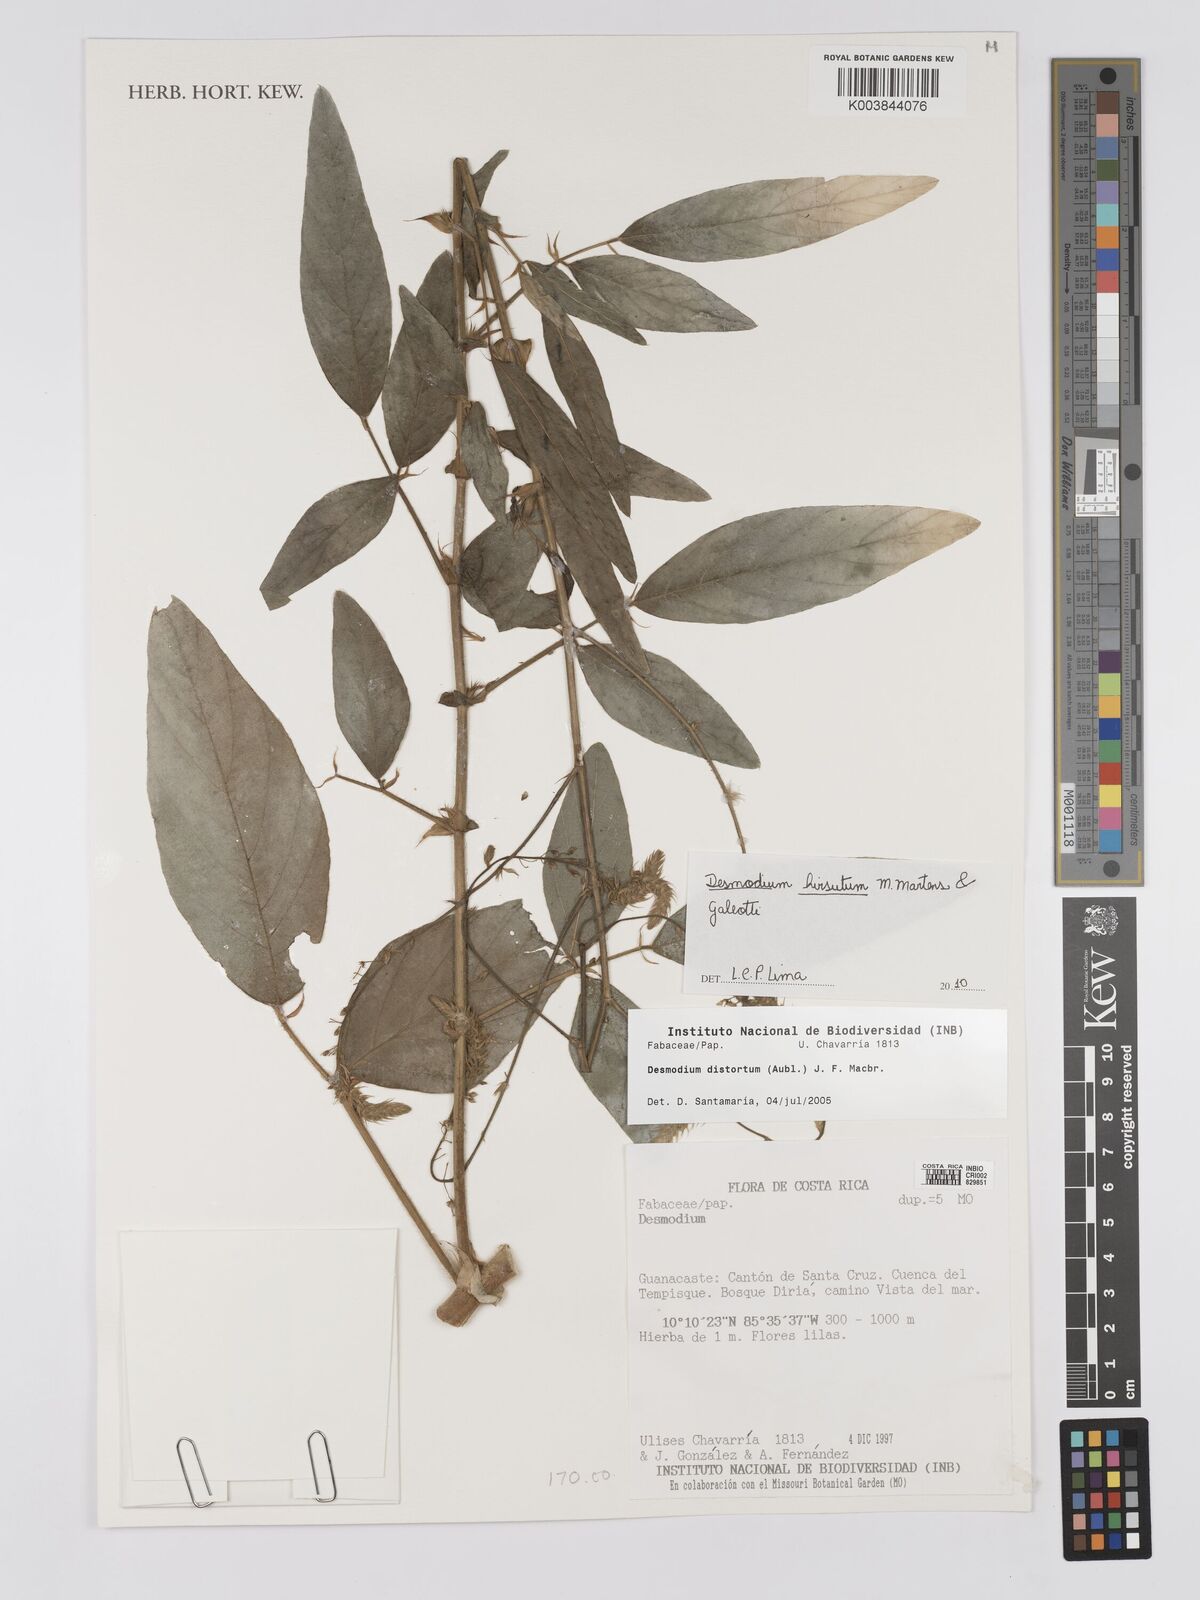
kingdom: Plantae
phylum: Tracheophyta
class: Magnoliopsida
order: Fabales
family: Fabaceae
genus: Desmodium
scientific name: Desmodium hirsutum
